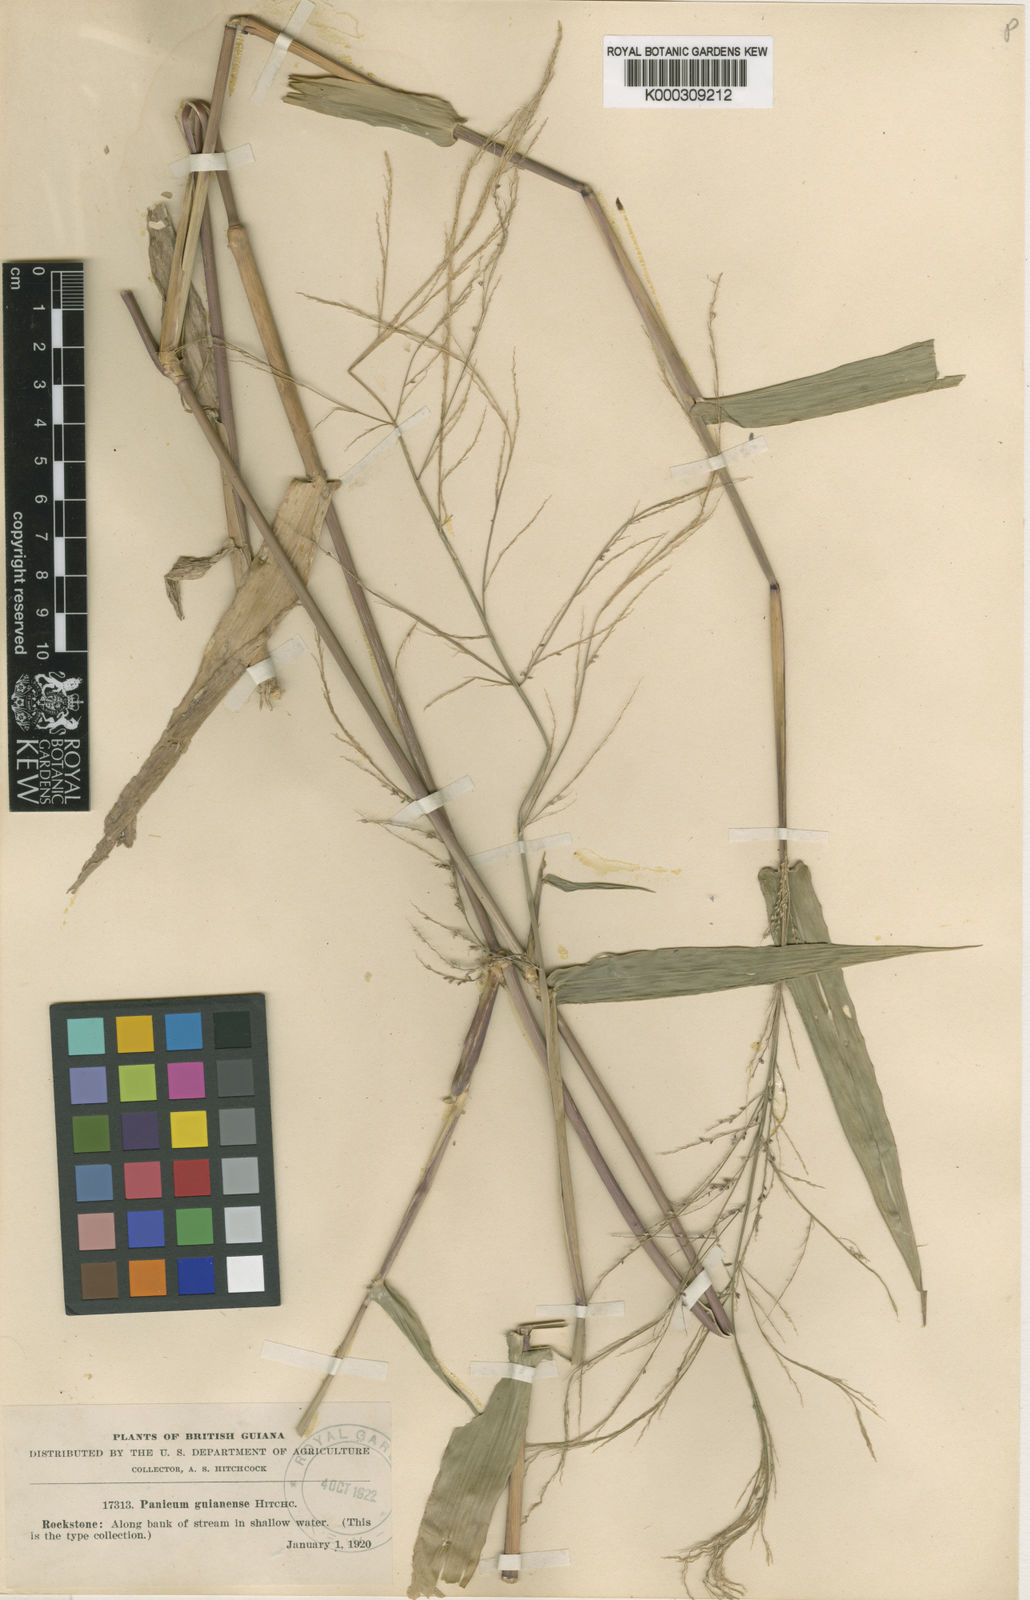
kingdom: Plantae
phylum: Tracheophyta
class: Liliopsida
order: Poales
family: Poaceae
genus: Rugoloa
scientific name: Rugoloa hylaeica
